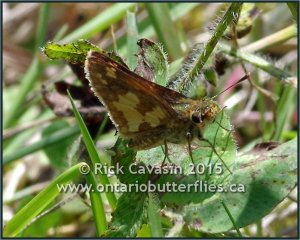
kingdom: Animalia
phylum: Arthropoda
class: Insecta
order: Lepidoptera
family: Hesperiidae
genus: Polites
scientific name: Polites coras
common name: Peck's Skipper
